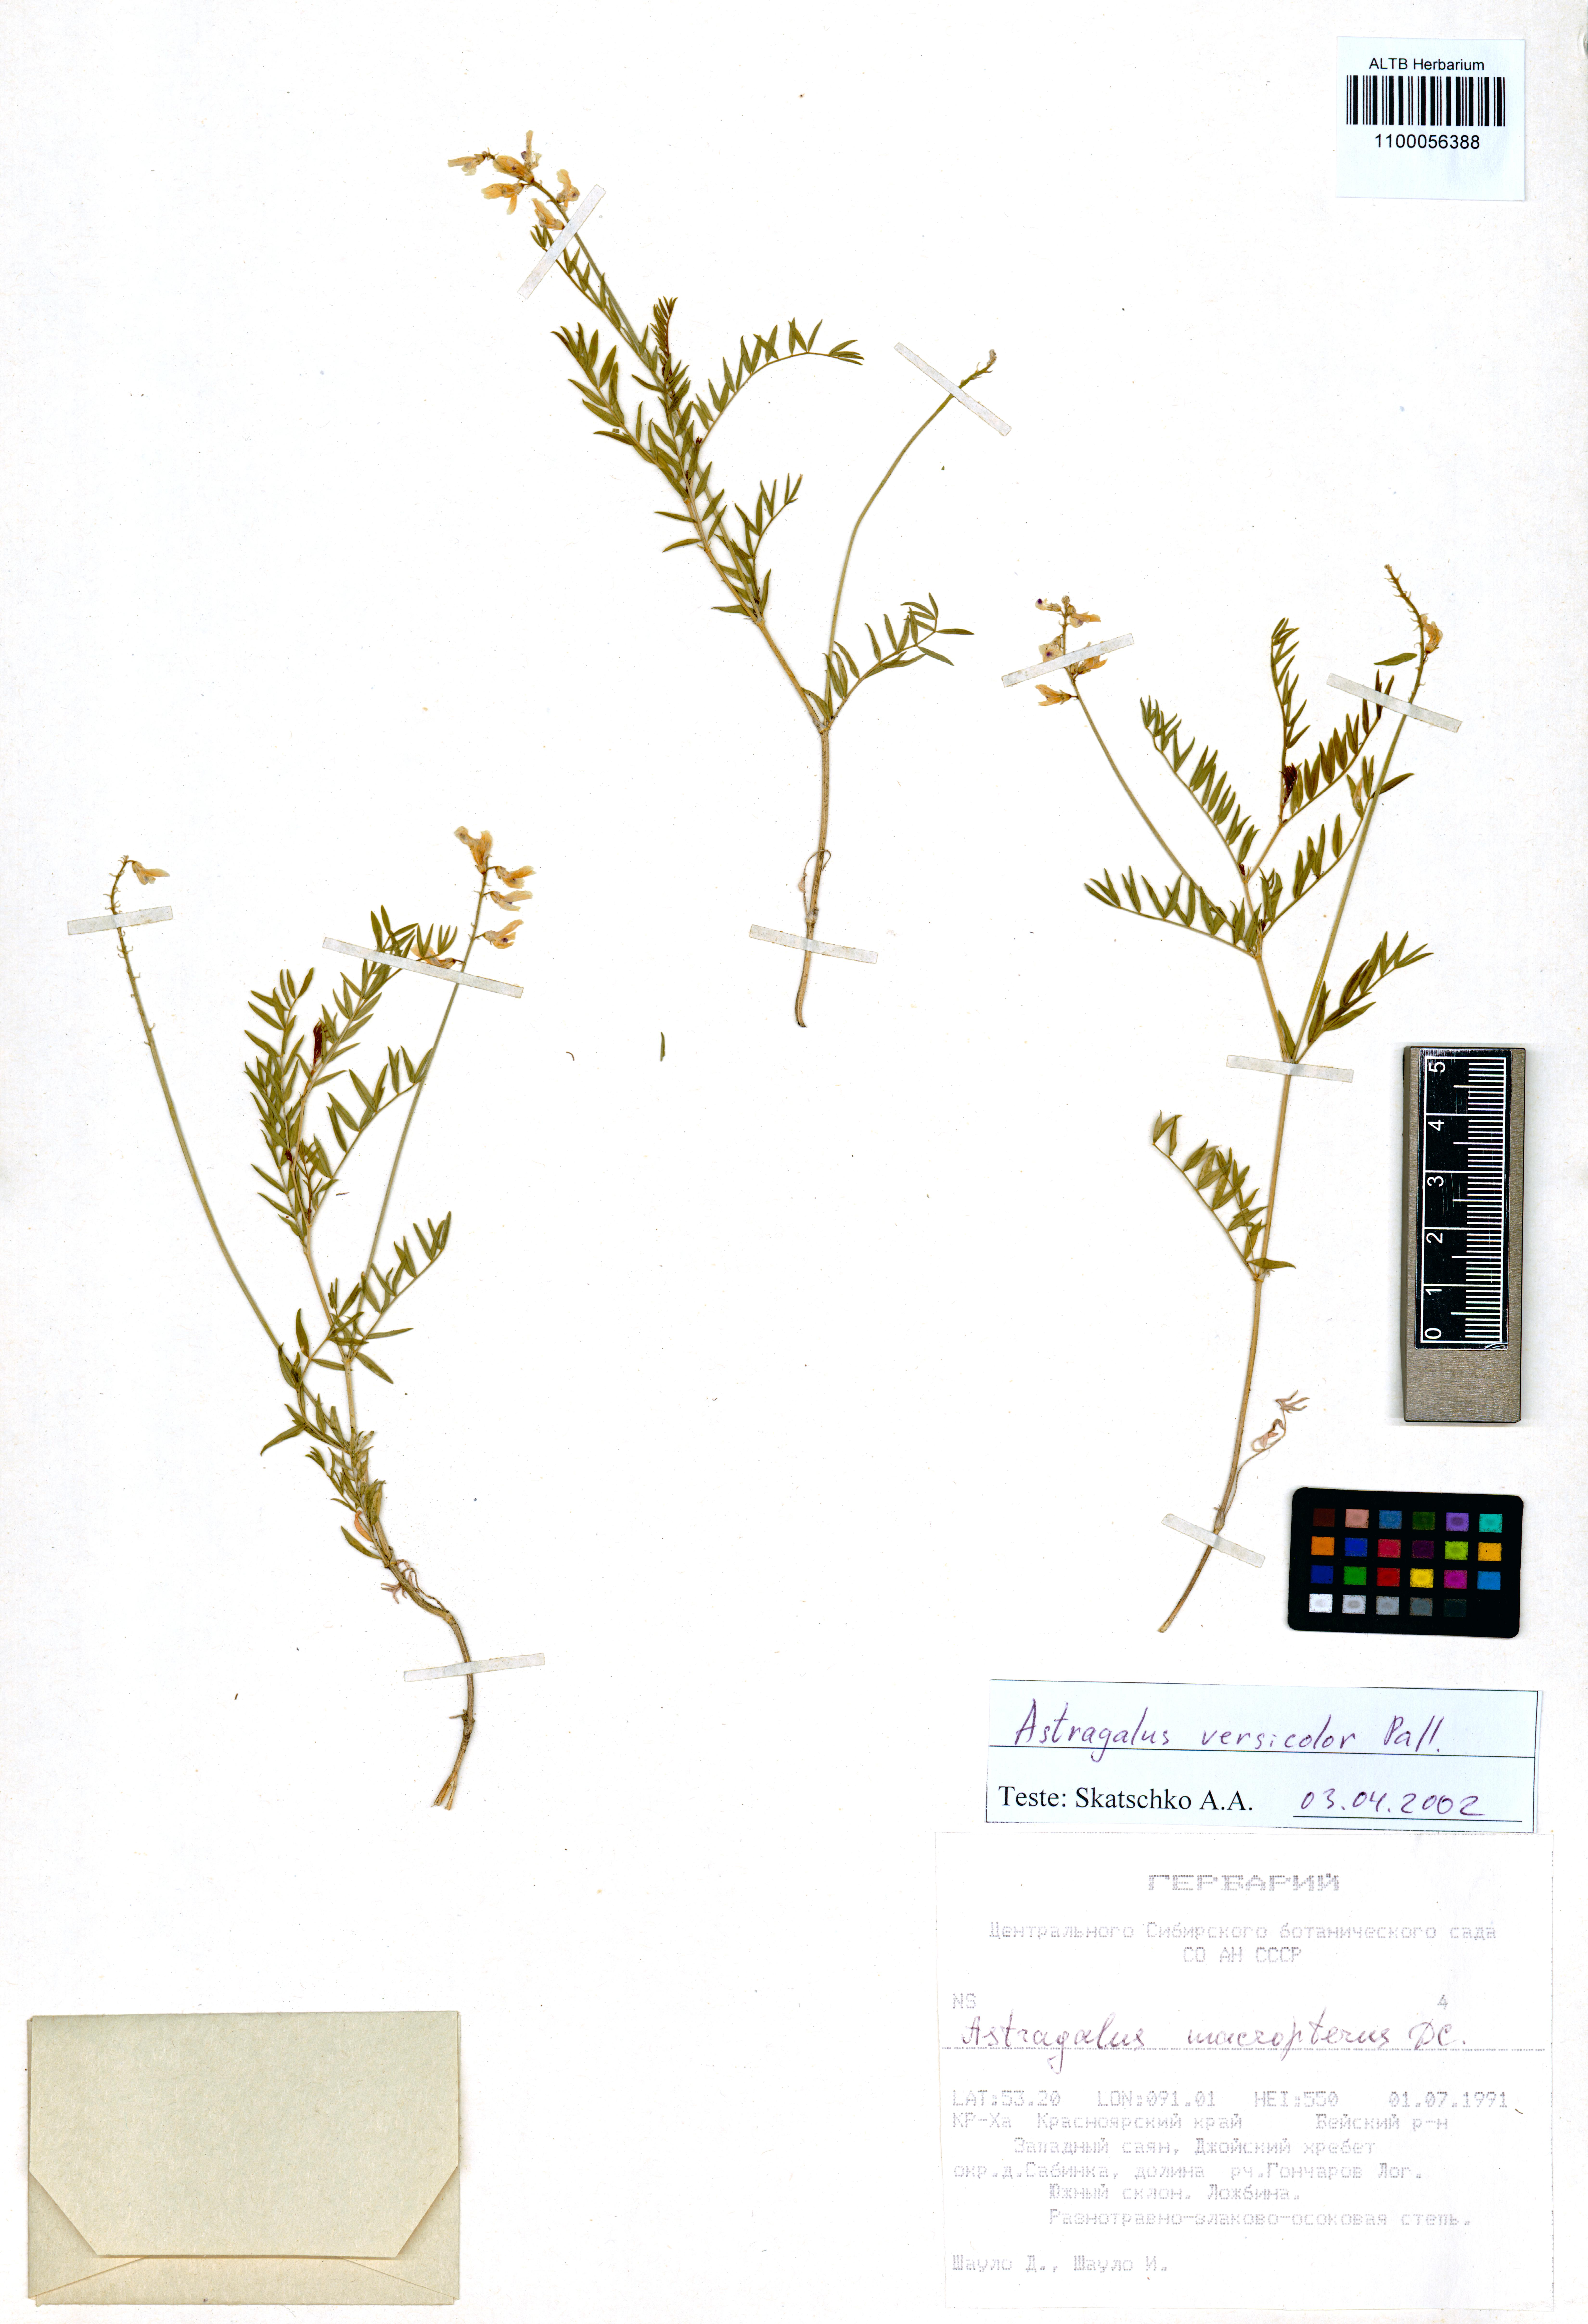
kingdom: Plantae
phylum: Tracheophyta
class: Magnoliopsida
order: Fabales
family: Fabaceae
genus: Astragalus
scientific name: Astragalus versicolor
